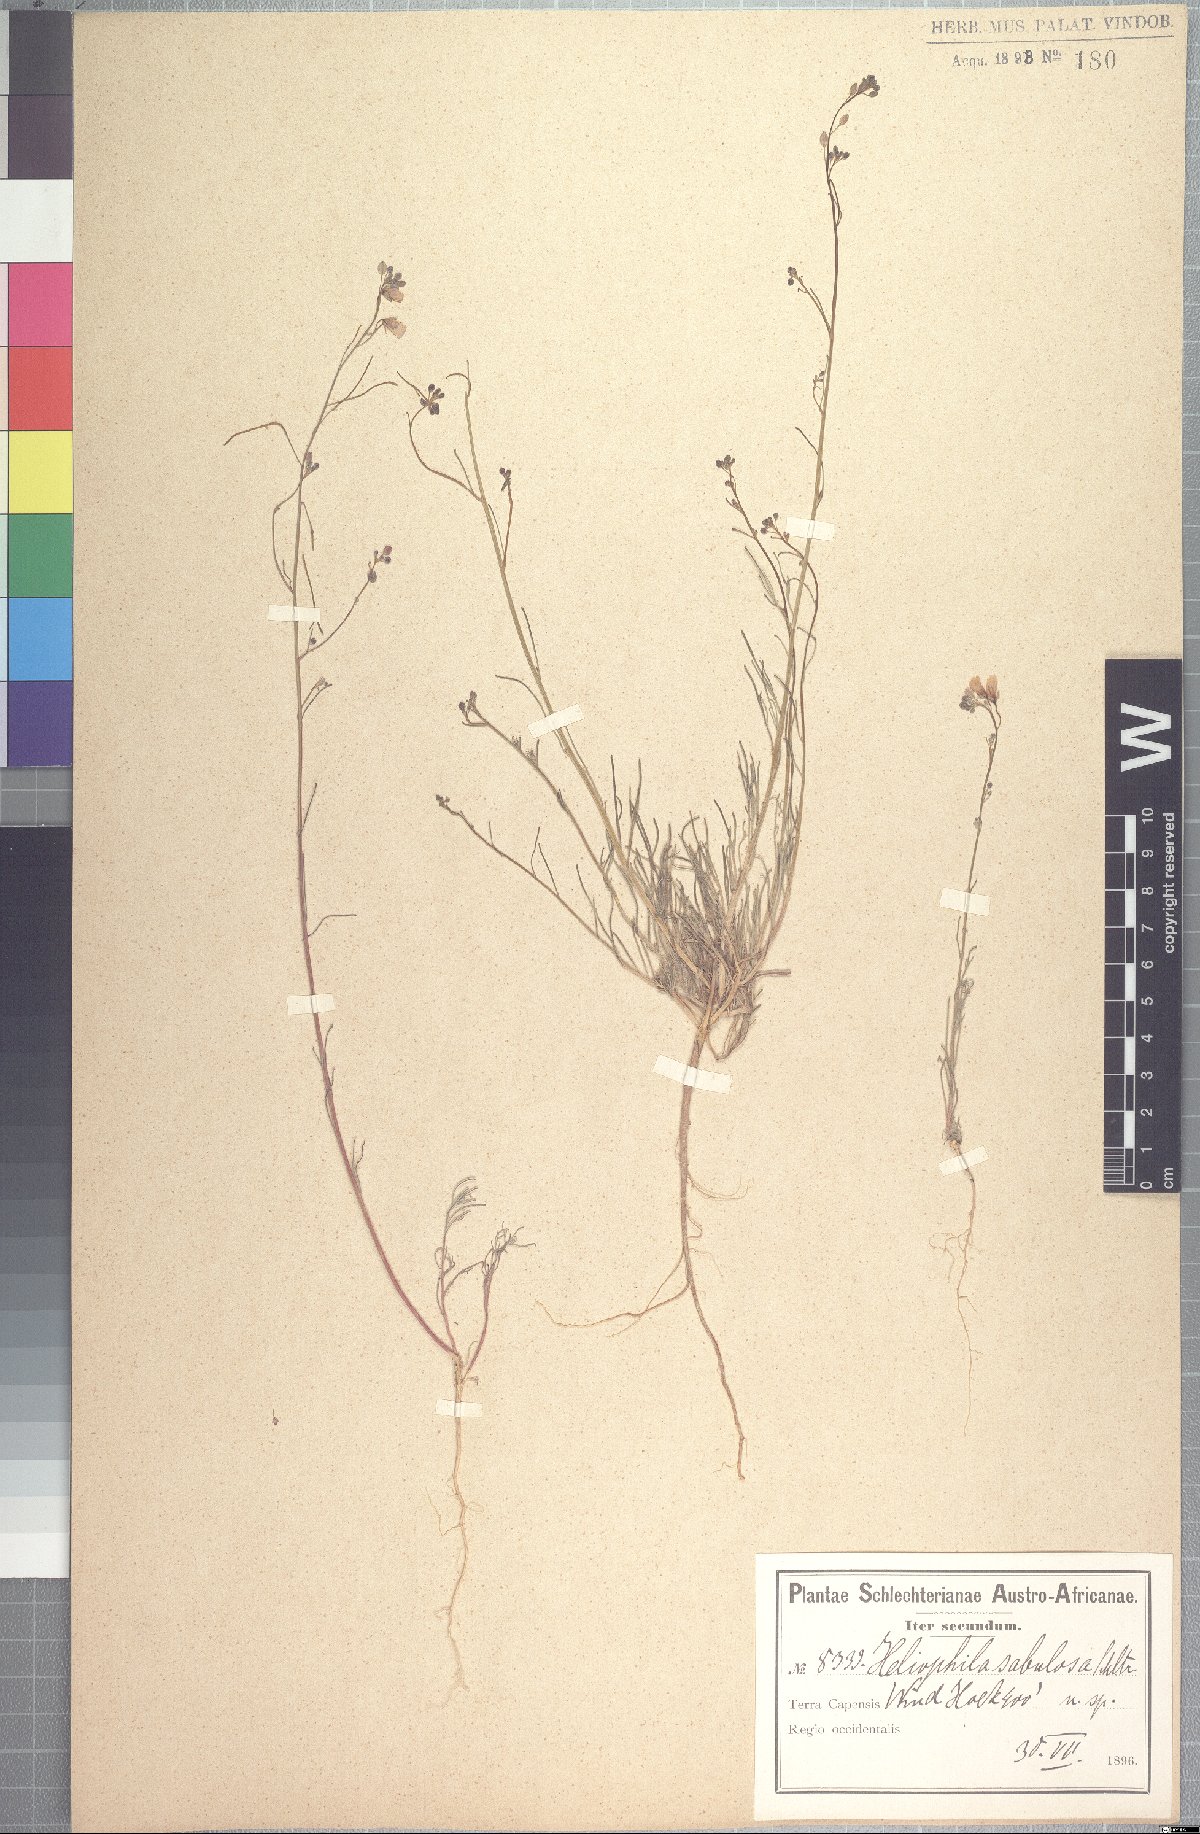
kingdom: Plantae
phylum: Tracheophyta
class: Magnoliopsida
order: Brassicales
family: Brassicaceae
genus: Heliophila
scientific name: Heliophila arenaria
